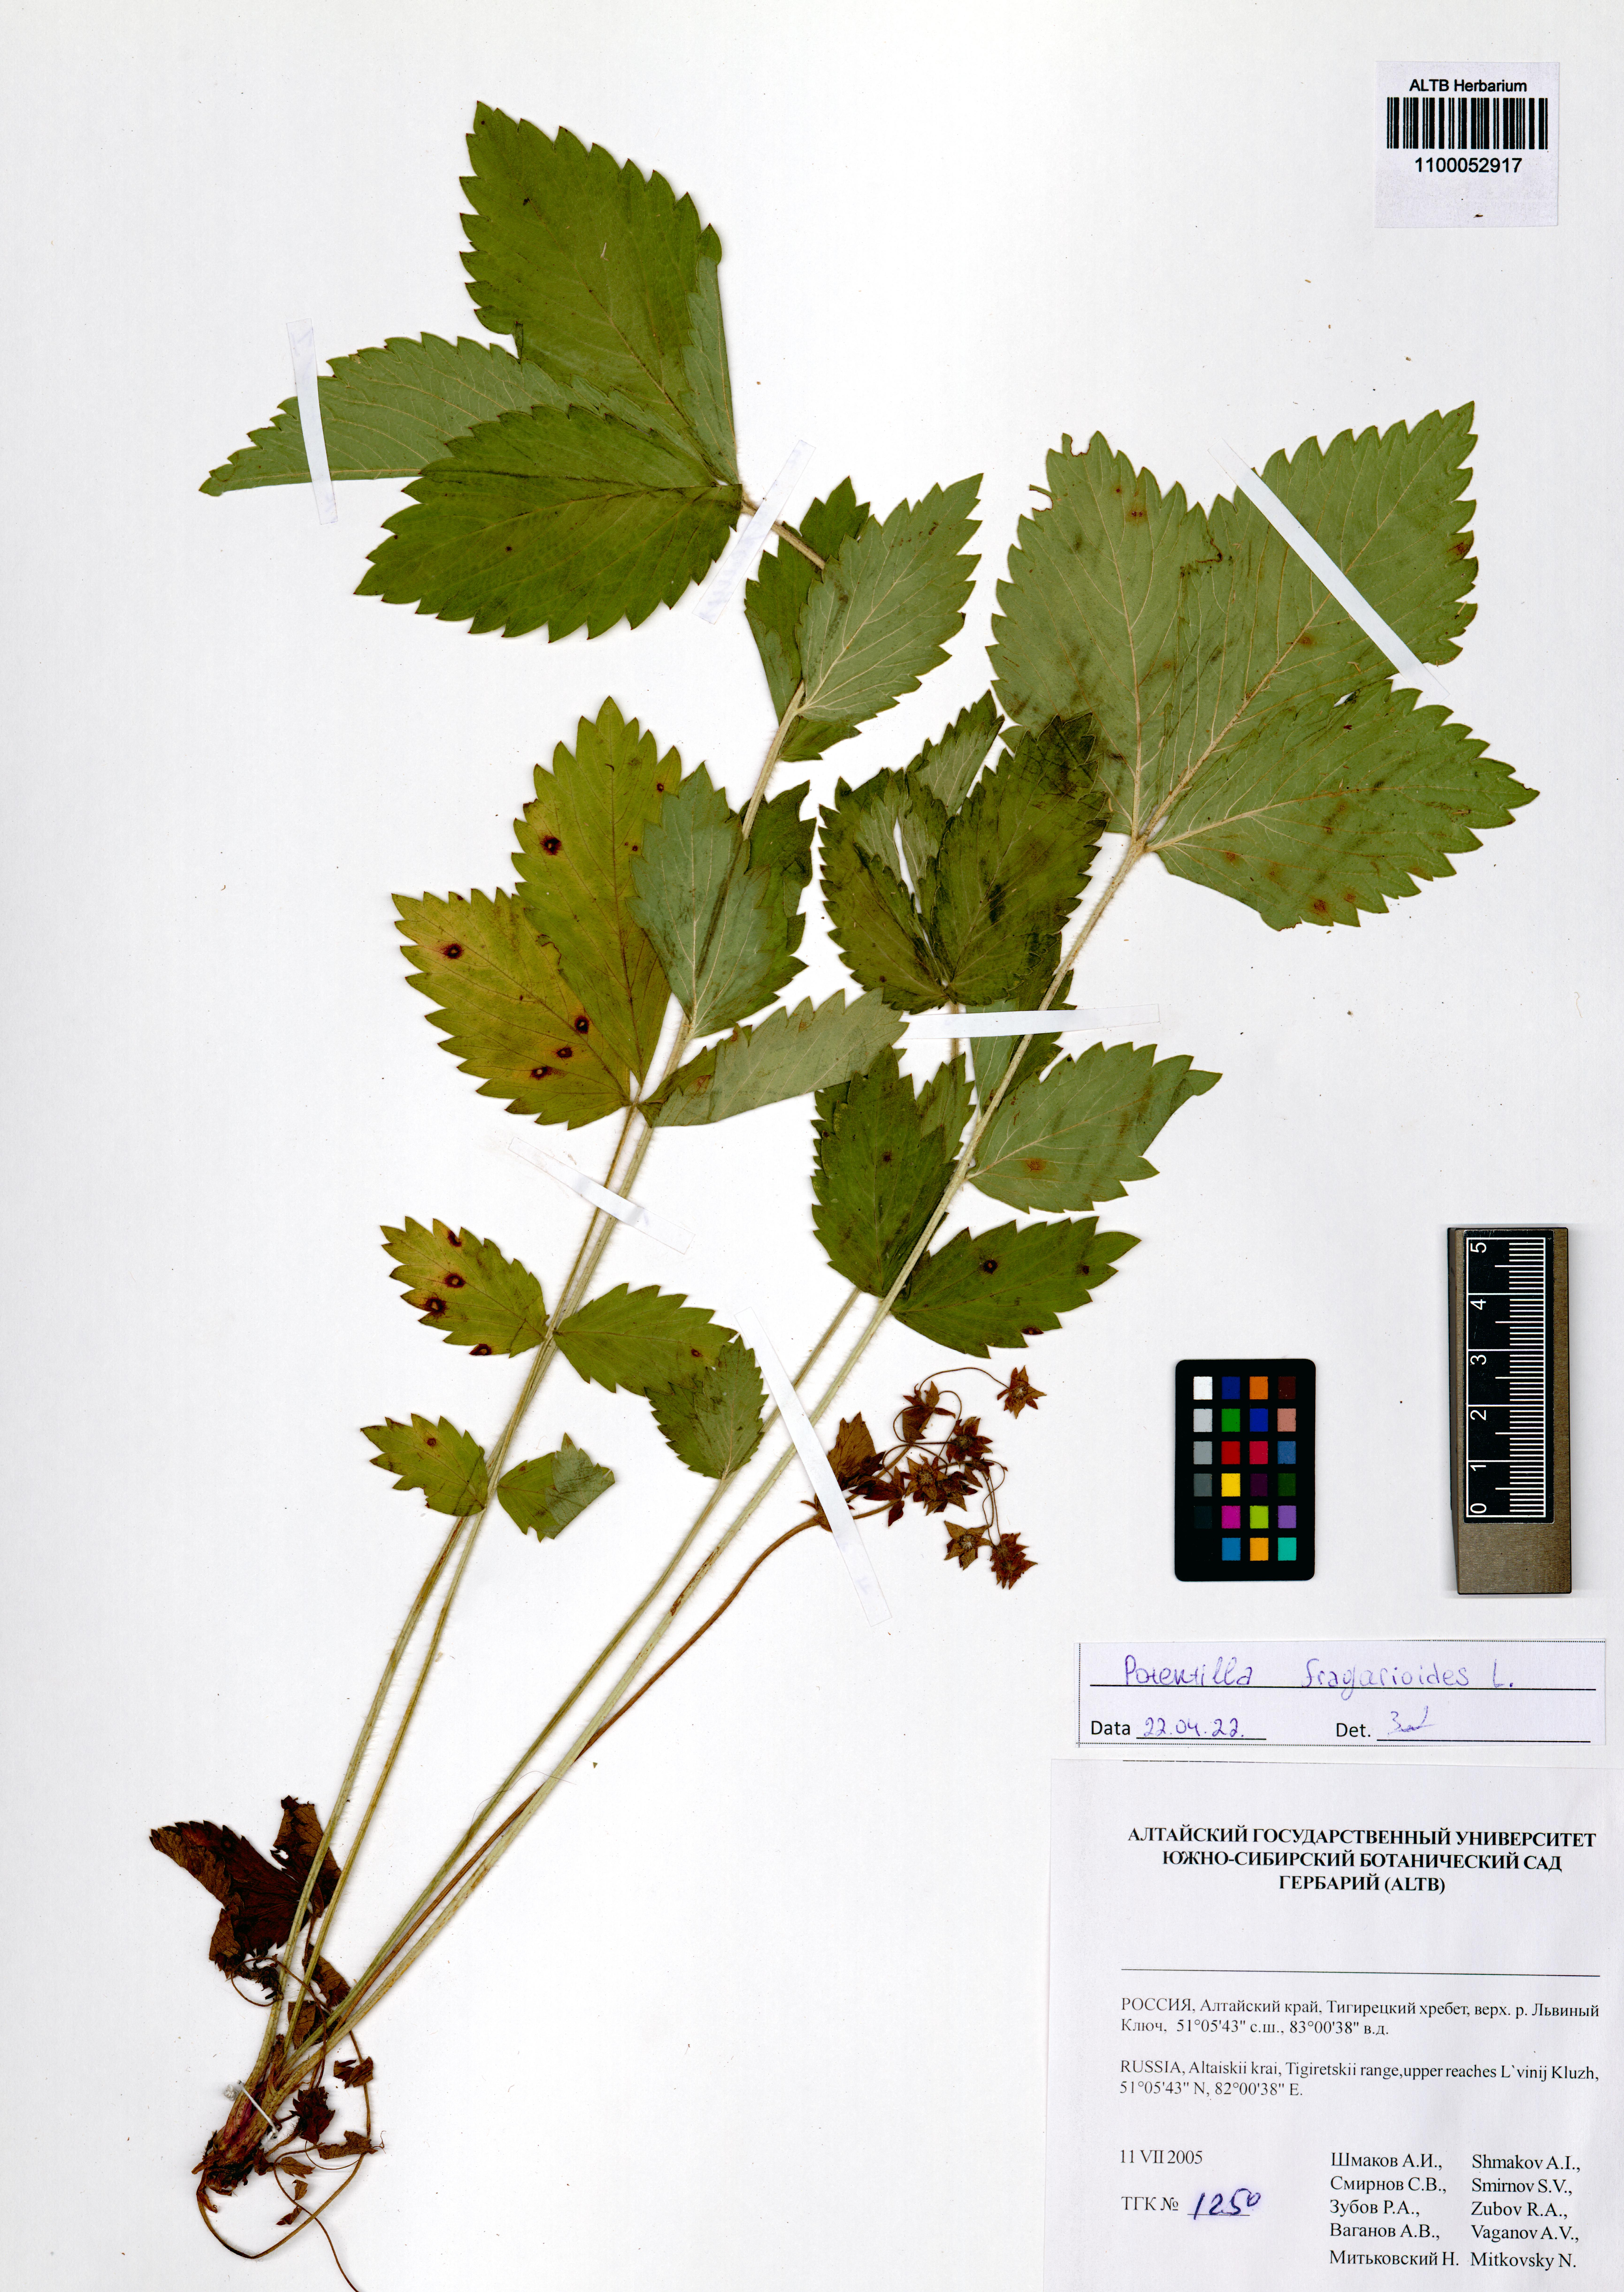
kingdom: Plantae
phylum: Tracheophyta
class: Magnoliopsida
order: Rosales
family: Rosaceae
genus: Potentilla
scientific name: Potentilla fragarioides
